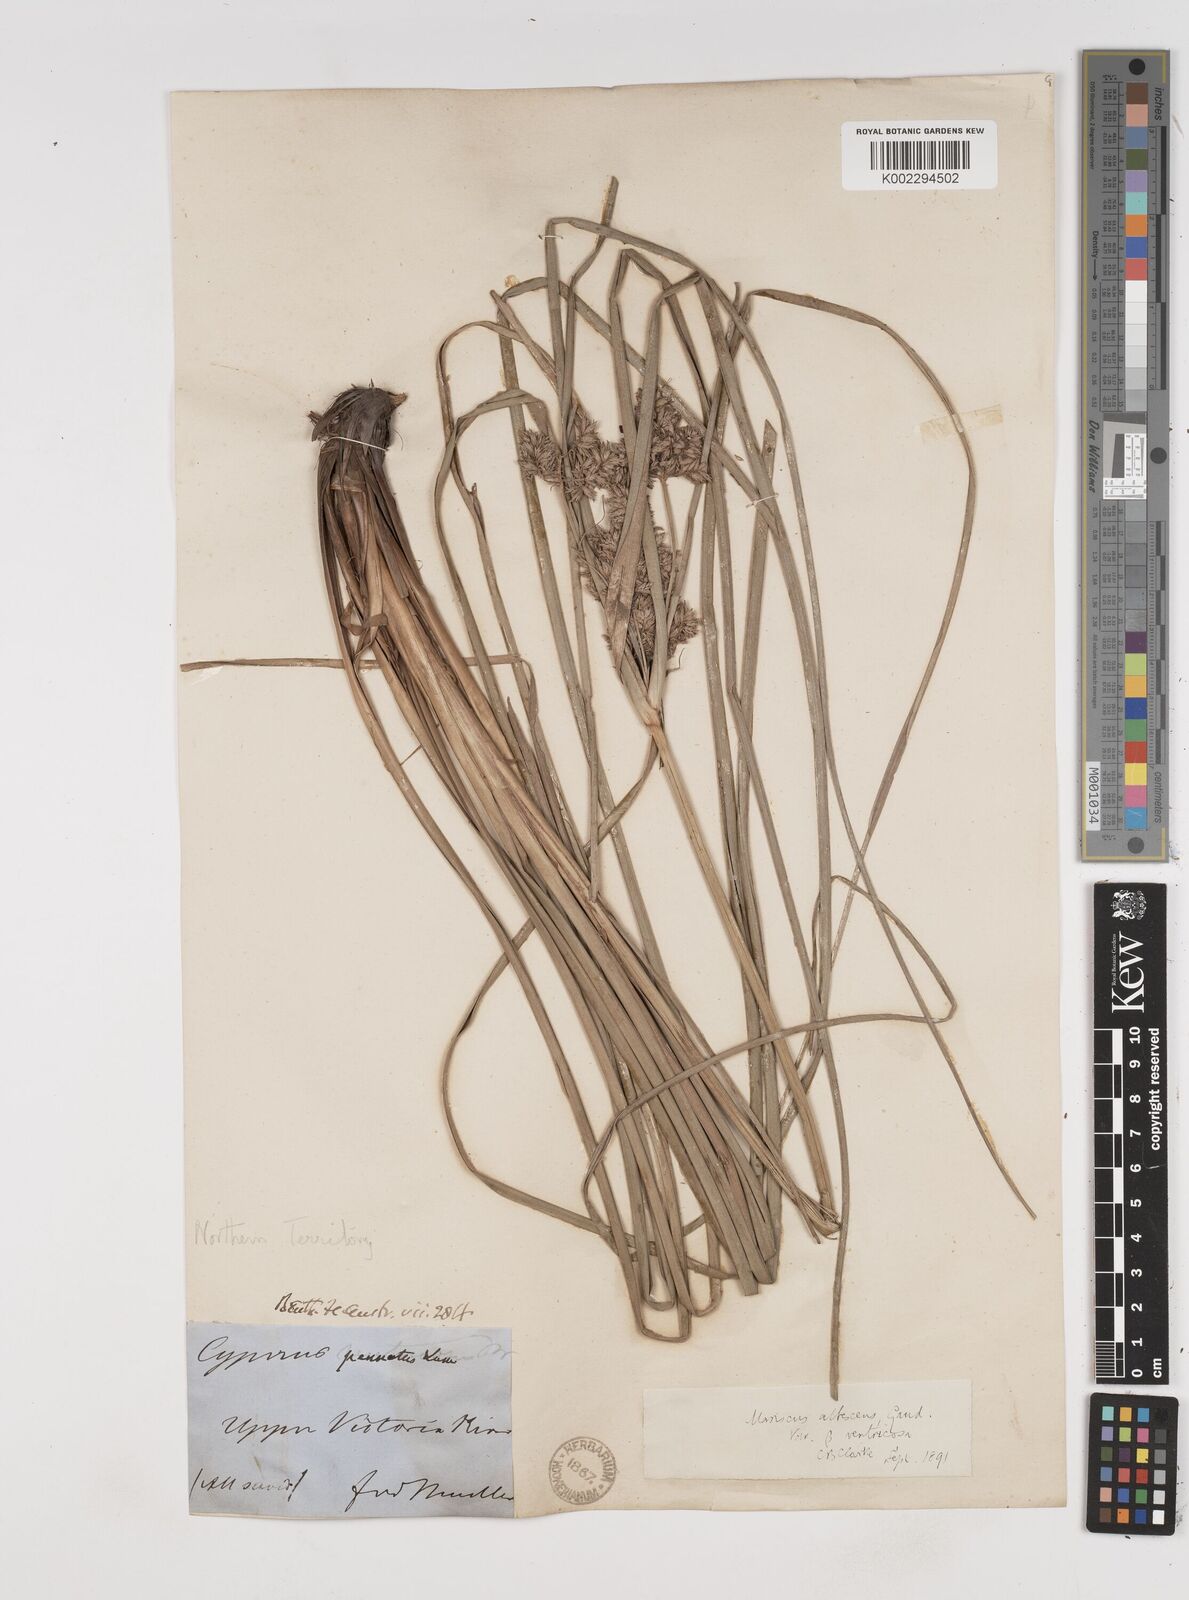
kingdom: Plantae
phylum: Tracheophyta
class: Liliopsida
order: Poales
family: Cyperaceae
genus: Cyperus
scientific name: Cyperus javanicus
